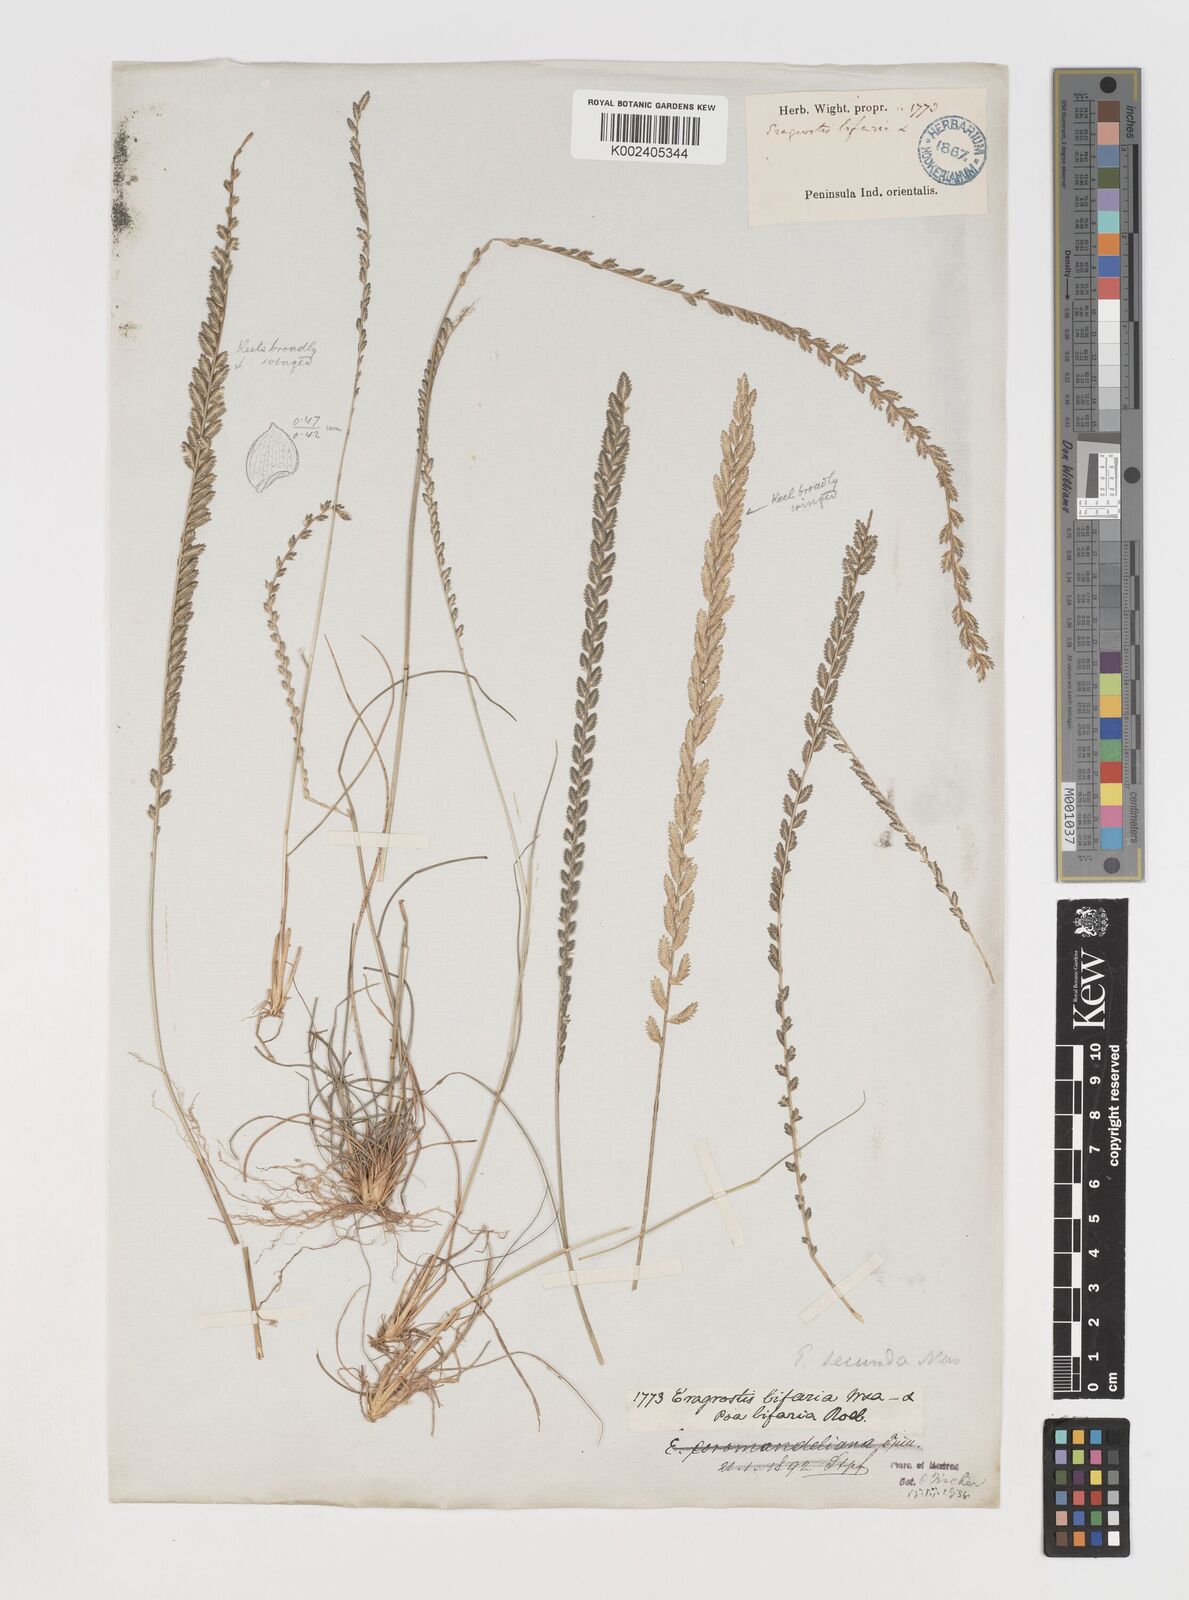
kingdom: Plantae
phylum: Tracheophyta
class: Liliopsida
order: Poales
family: Poaceae
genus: Eragrostiella
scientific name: Eragrostiella bifaria
